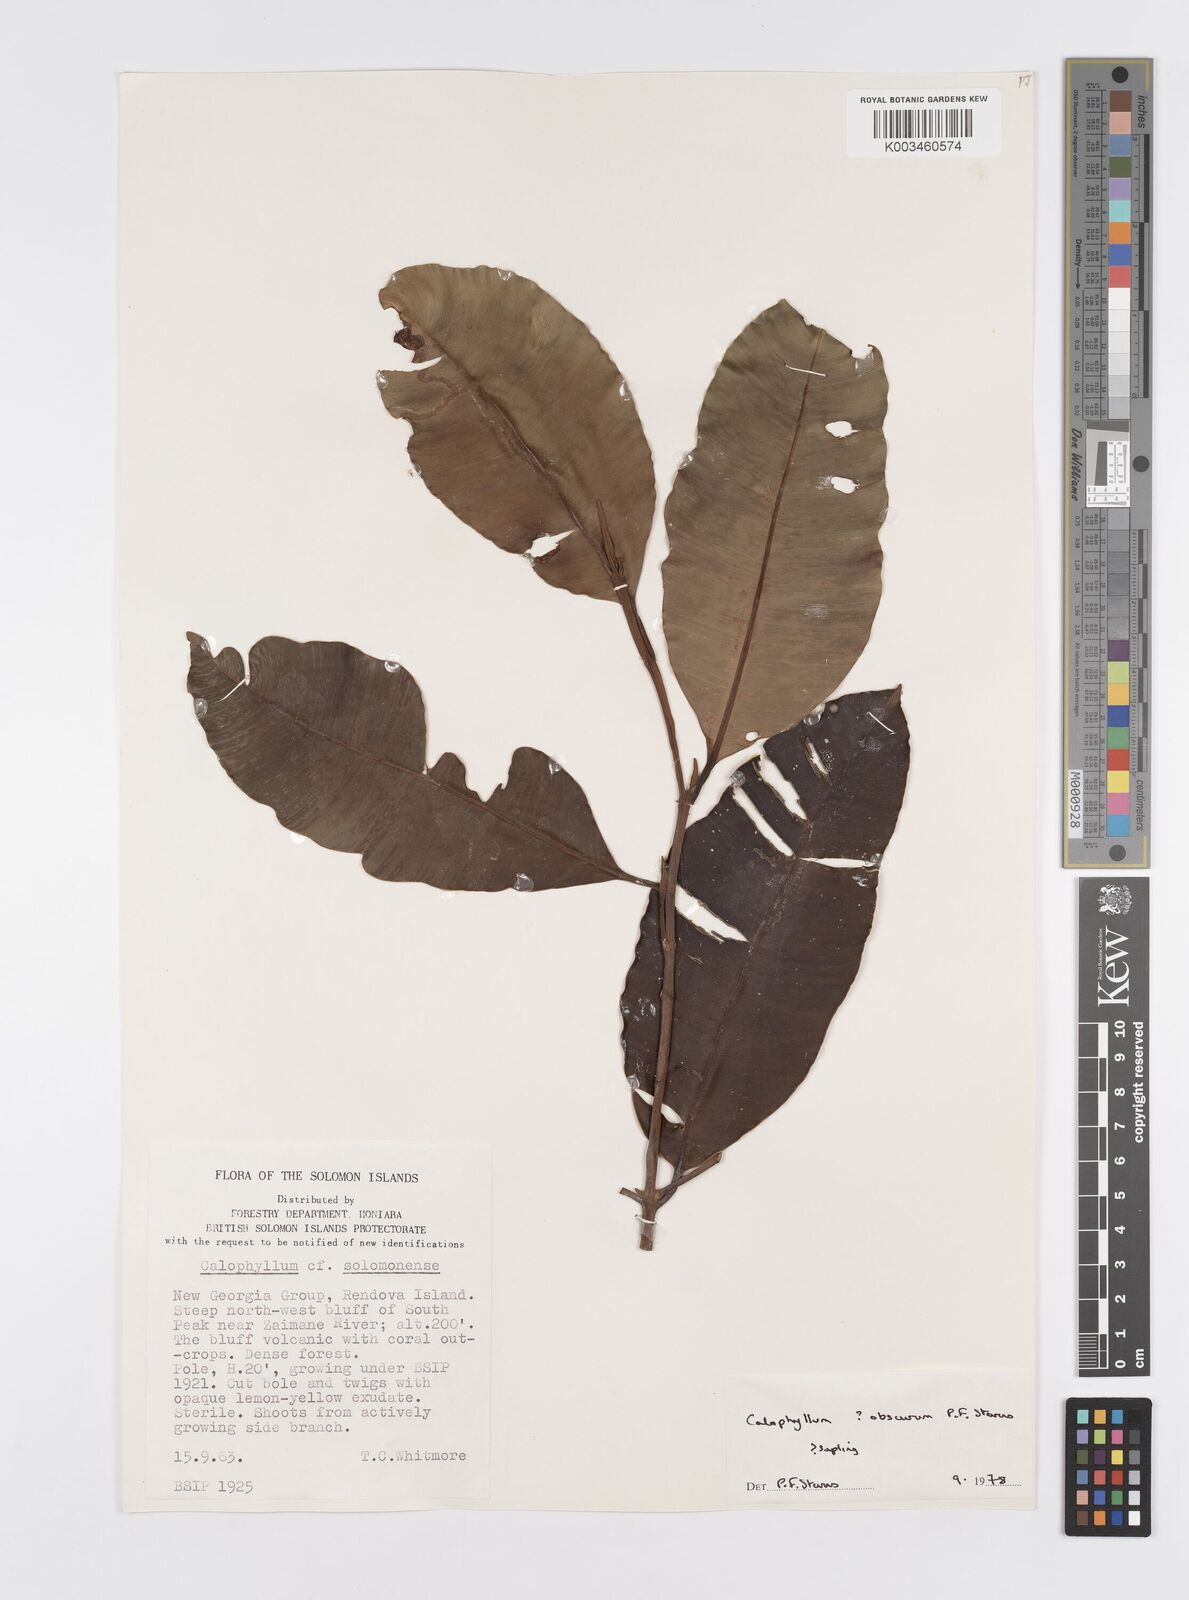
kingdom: Plantae
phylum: Tracheophyta
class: Magnoliopsida
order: Malpighiales
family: Calophyllaceae
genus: Calophyllum
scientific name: Calophyllum obscurum
